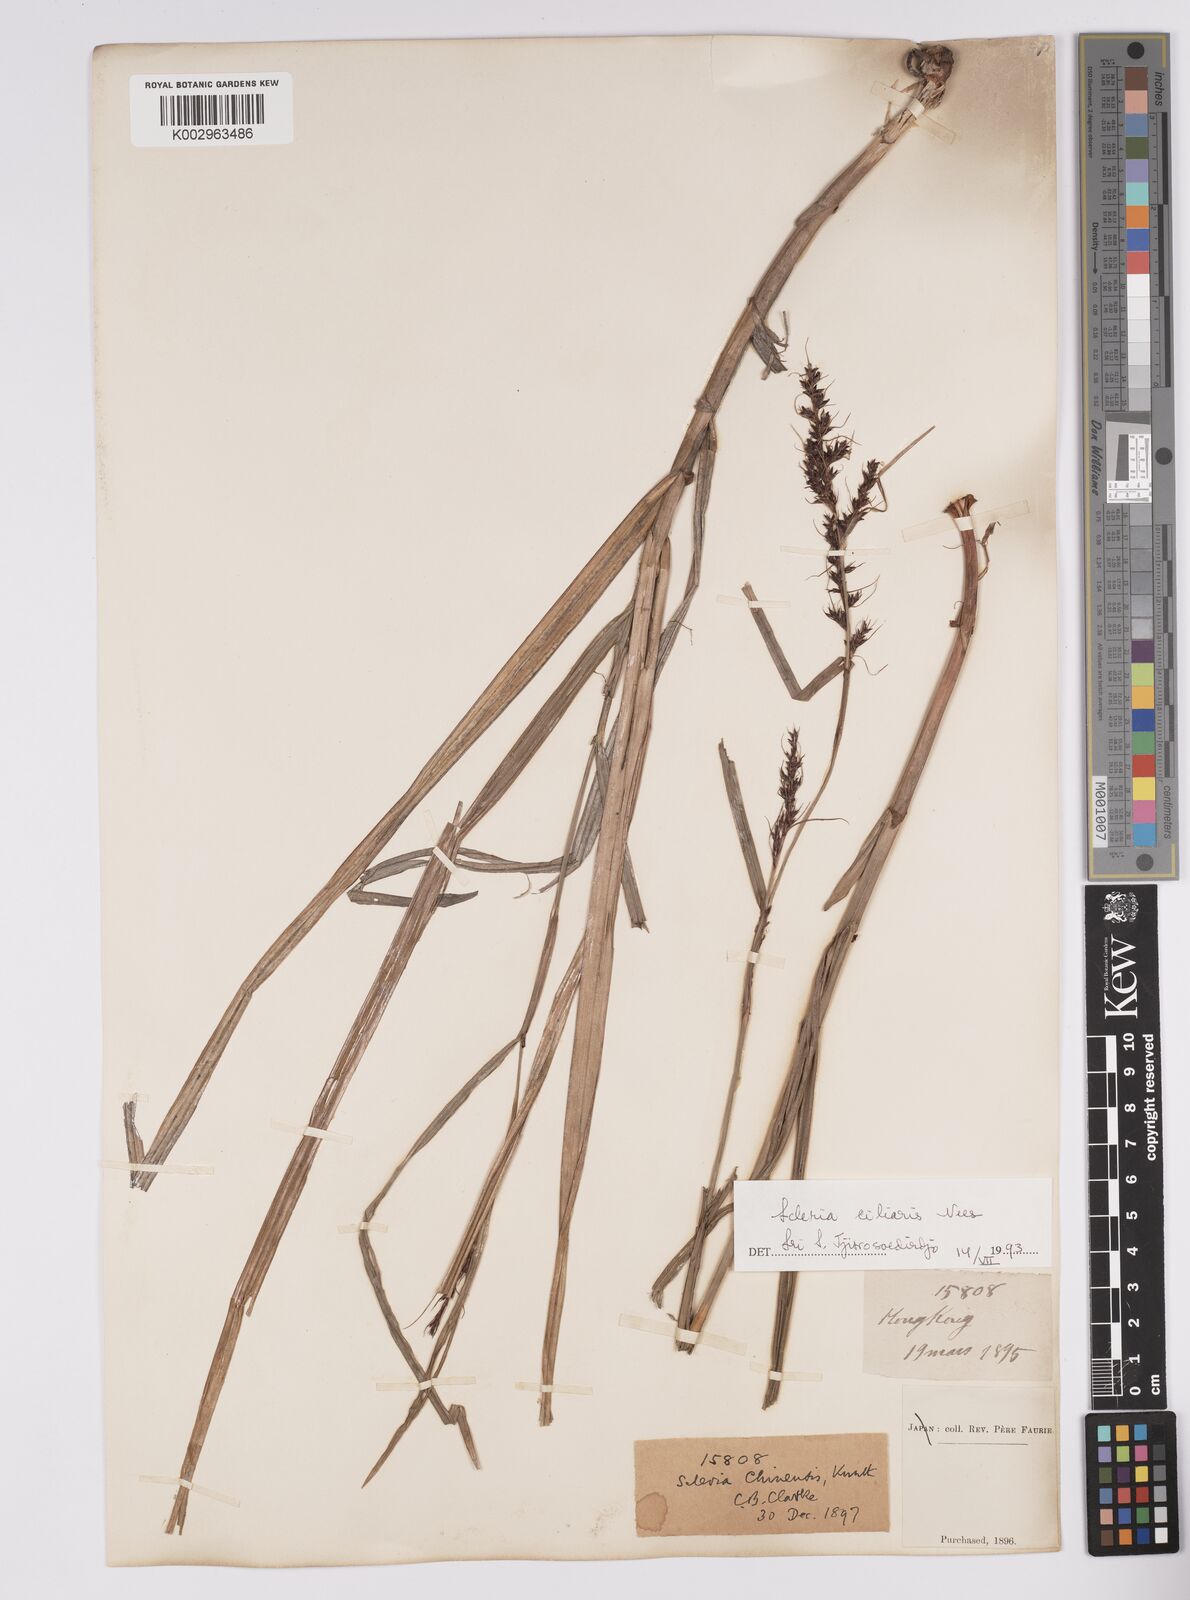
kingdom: Plantae
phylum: Tracheophyta
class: Liliopsida
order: Poales
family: Cyperaceae
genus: Scleria
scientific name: Scleria ciliaris
